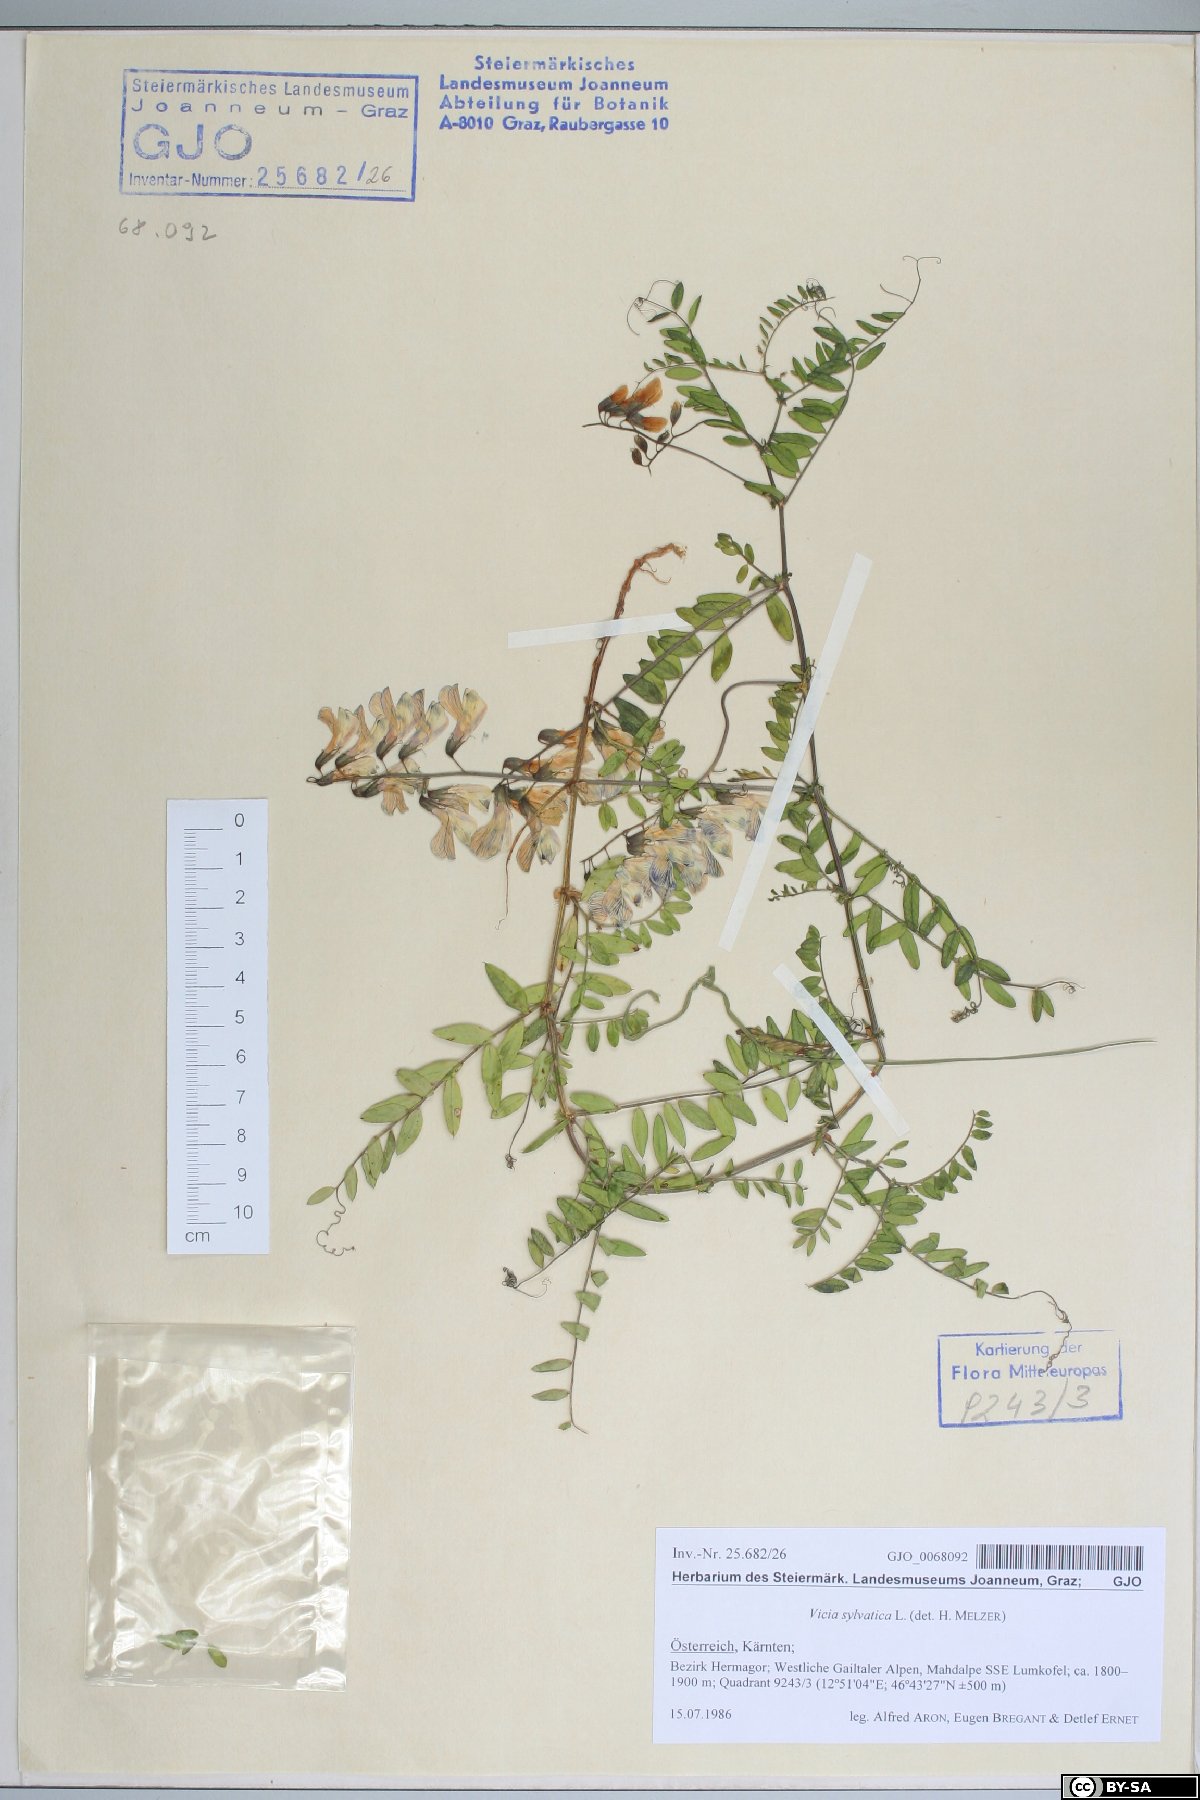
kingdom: Plantae
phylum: Tracheophyta
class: Magnoliopsida
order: Fabales
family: Fabaceae
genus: Vicia
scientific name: Vicia sylvatica
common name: Wood vetch
